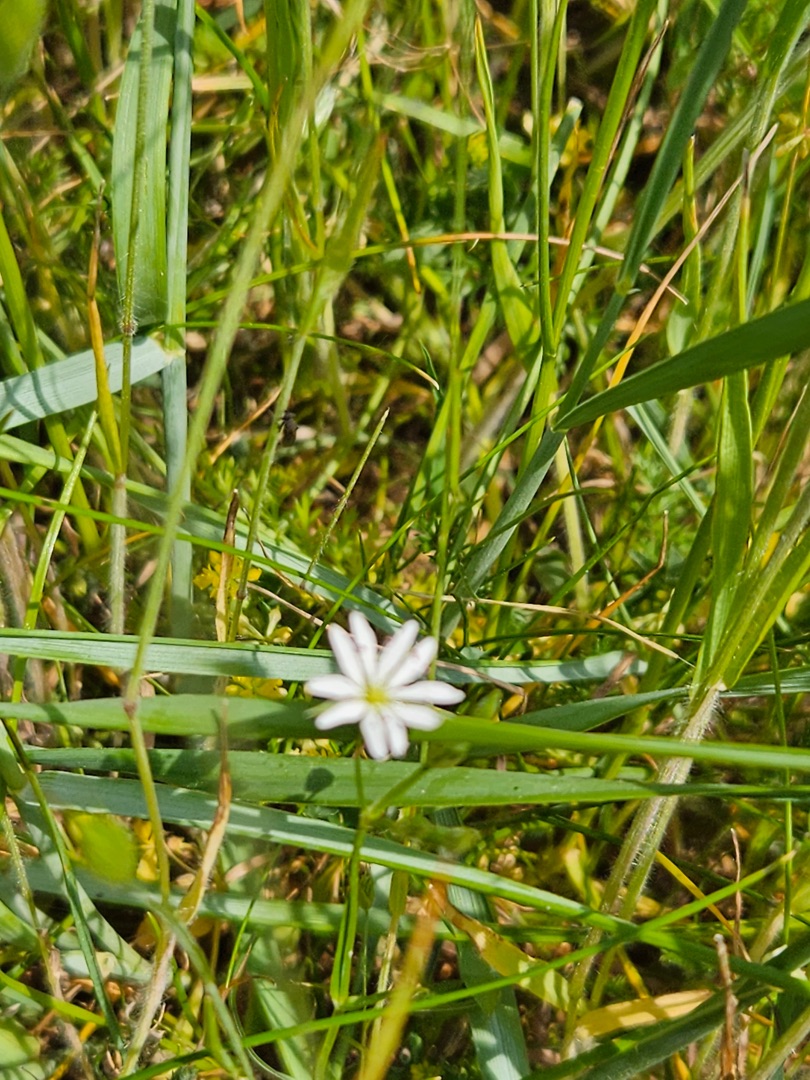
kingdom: Plantae
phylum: Tracheophyta
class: Magnoliopsida
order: Caryophyllales
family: Caryophyllaceae
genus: Stellaria
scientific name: Stellaria graminea
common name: Græsbladet fladstjerne
